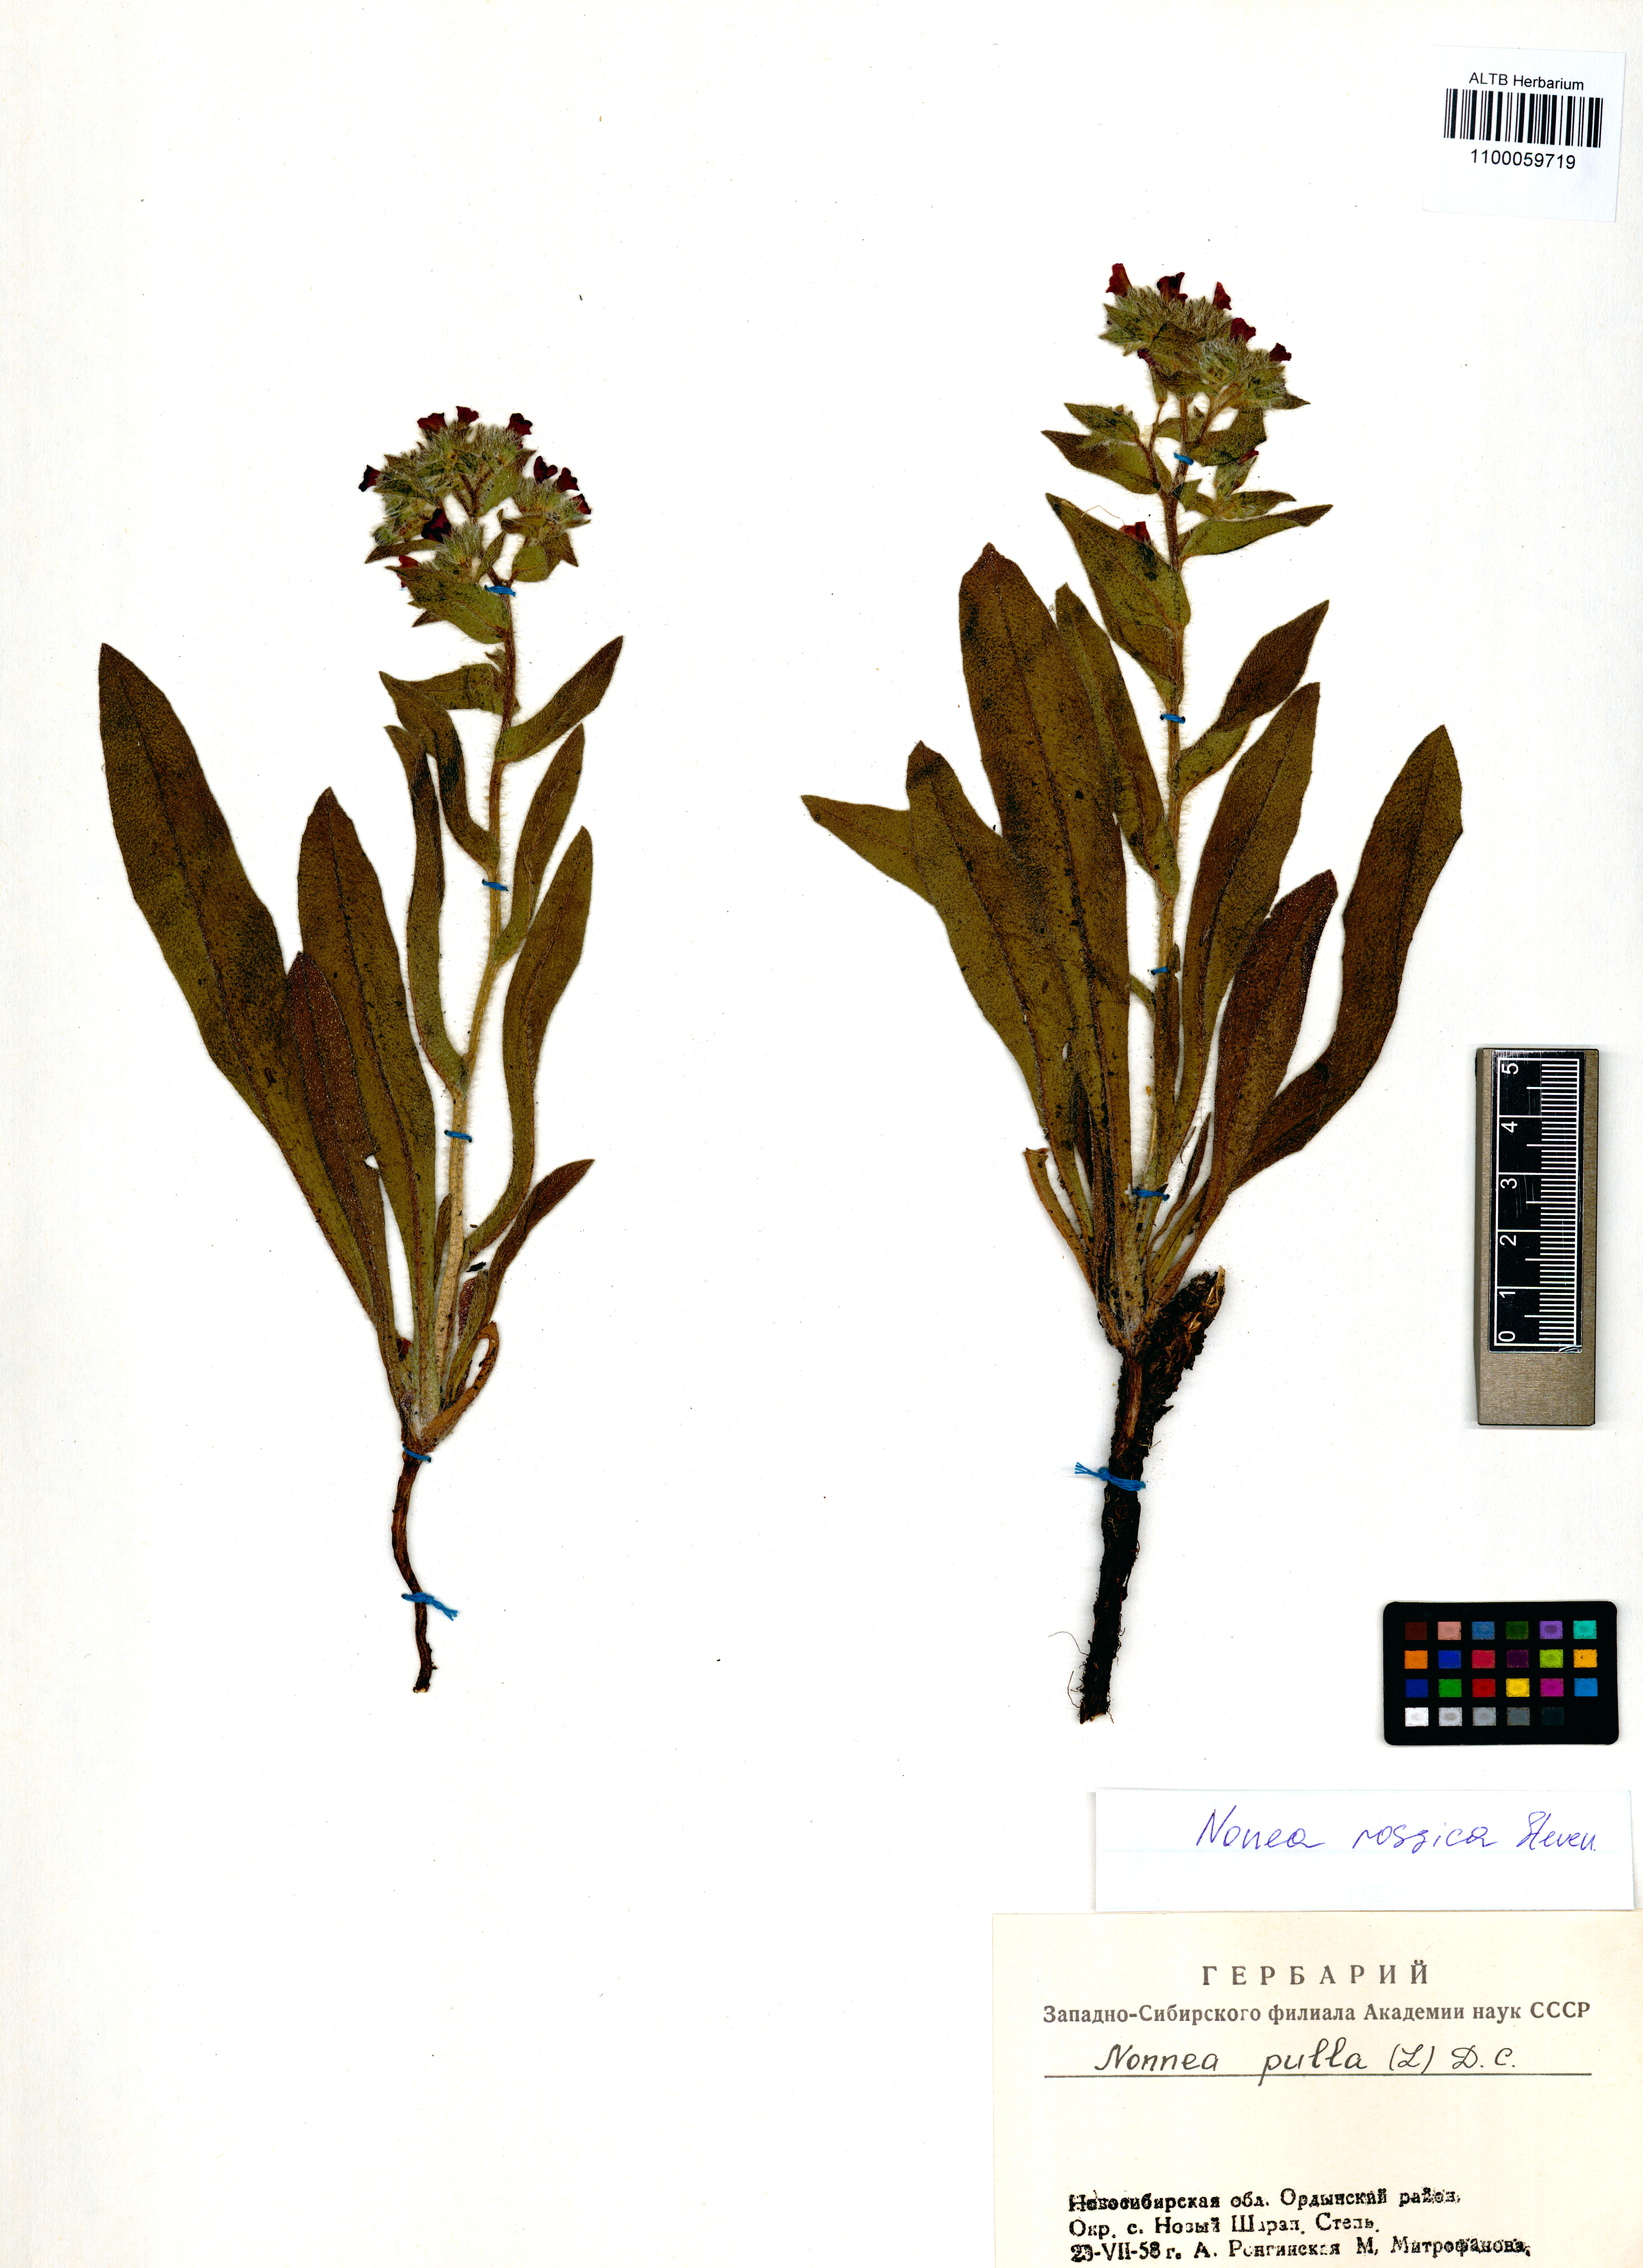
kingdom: Plantae
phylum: Tracheophyta
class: Magnoliopsida
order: Boraginales
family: Boraginaceae
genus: Nonea
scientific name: Nonea pulla
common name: Brown nonea
